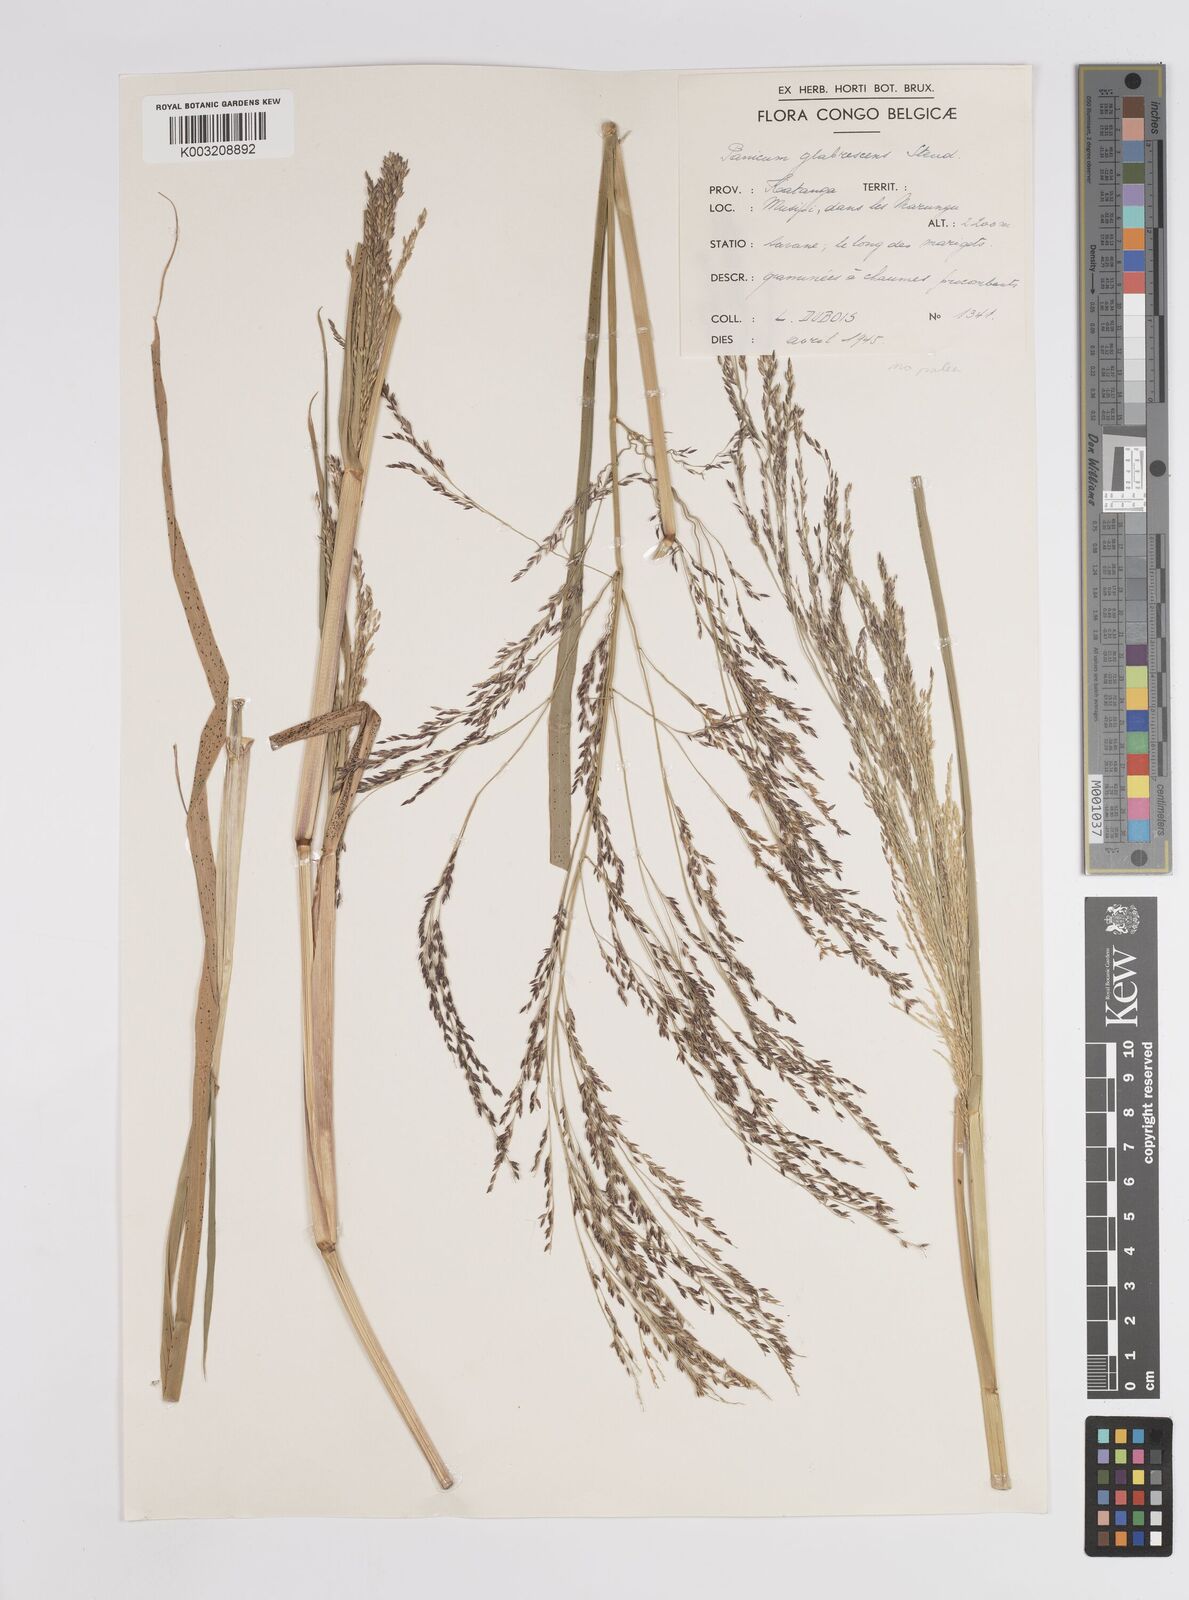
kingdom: Plantae
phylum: Tracheophyta
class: Liliopsida
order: Poales
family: Poaceae
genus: Panicum
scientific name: Panicum subalbidum
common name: Elbow buffalo grass
